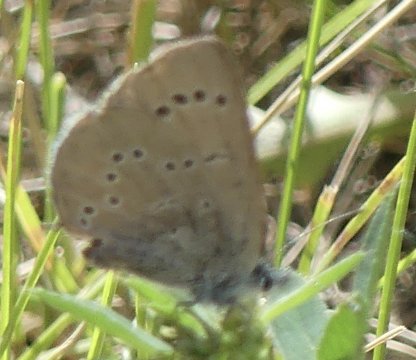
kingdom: Animalia
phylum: Arthropoda
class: Insecta
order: Lepidoptera
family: Lycaenidae
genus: Glaucopsyche
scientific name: Glaucopsyche lygdamus
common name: Silvery Blue
